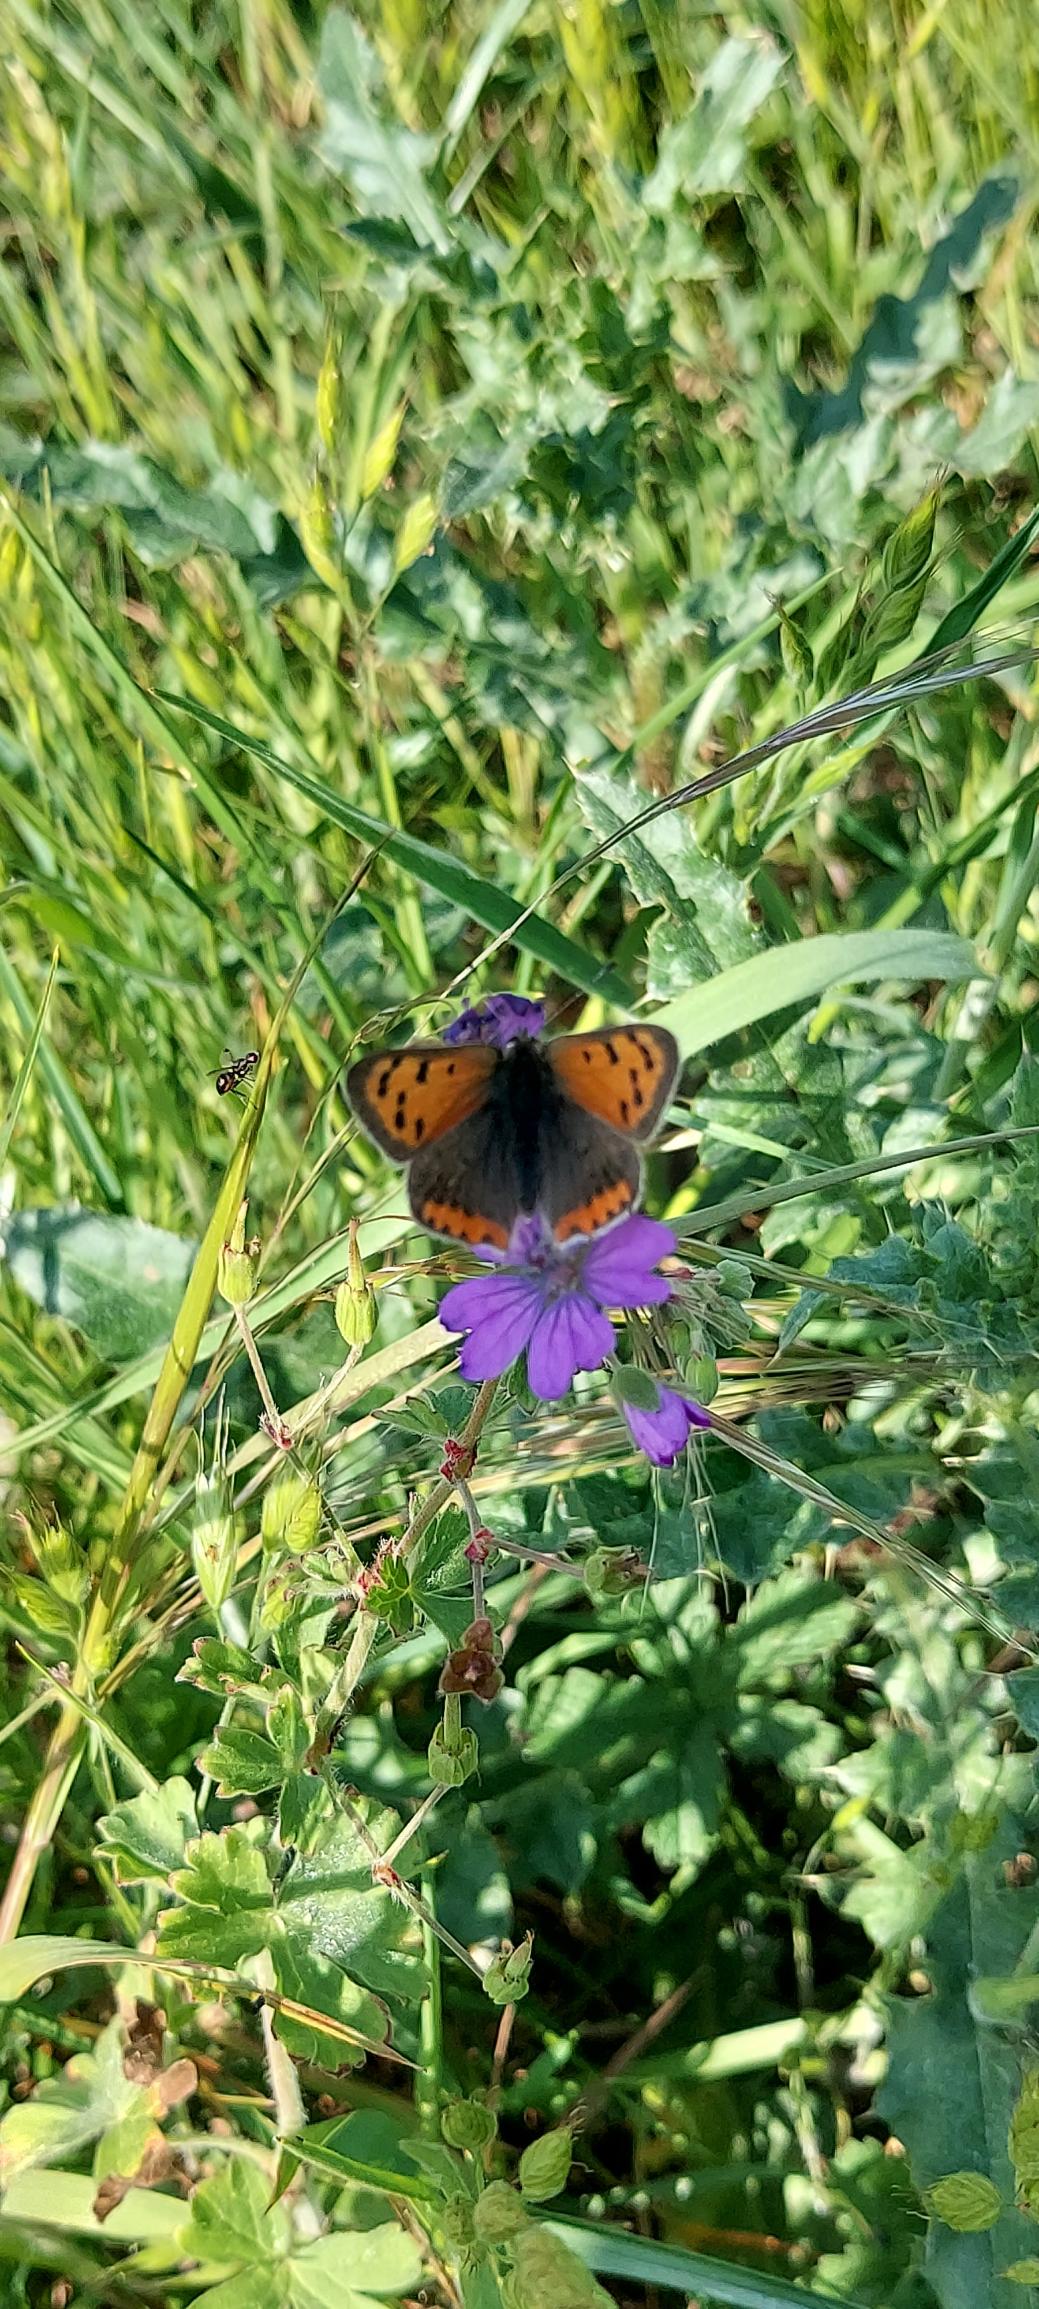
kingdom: Animalia
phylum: Arthropoda
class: Insecta
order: Lepidoptera
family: Lycaenidae
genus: Lycaena
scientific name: Lycaena phlaeas
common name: Lille ildfugl
